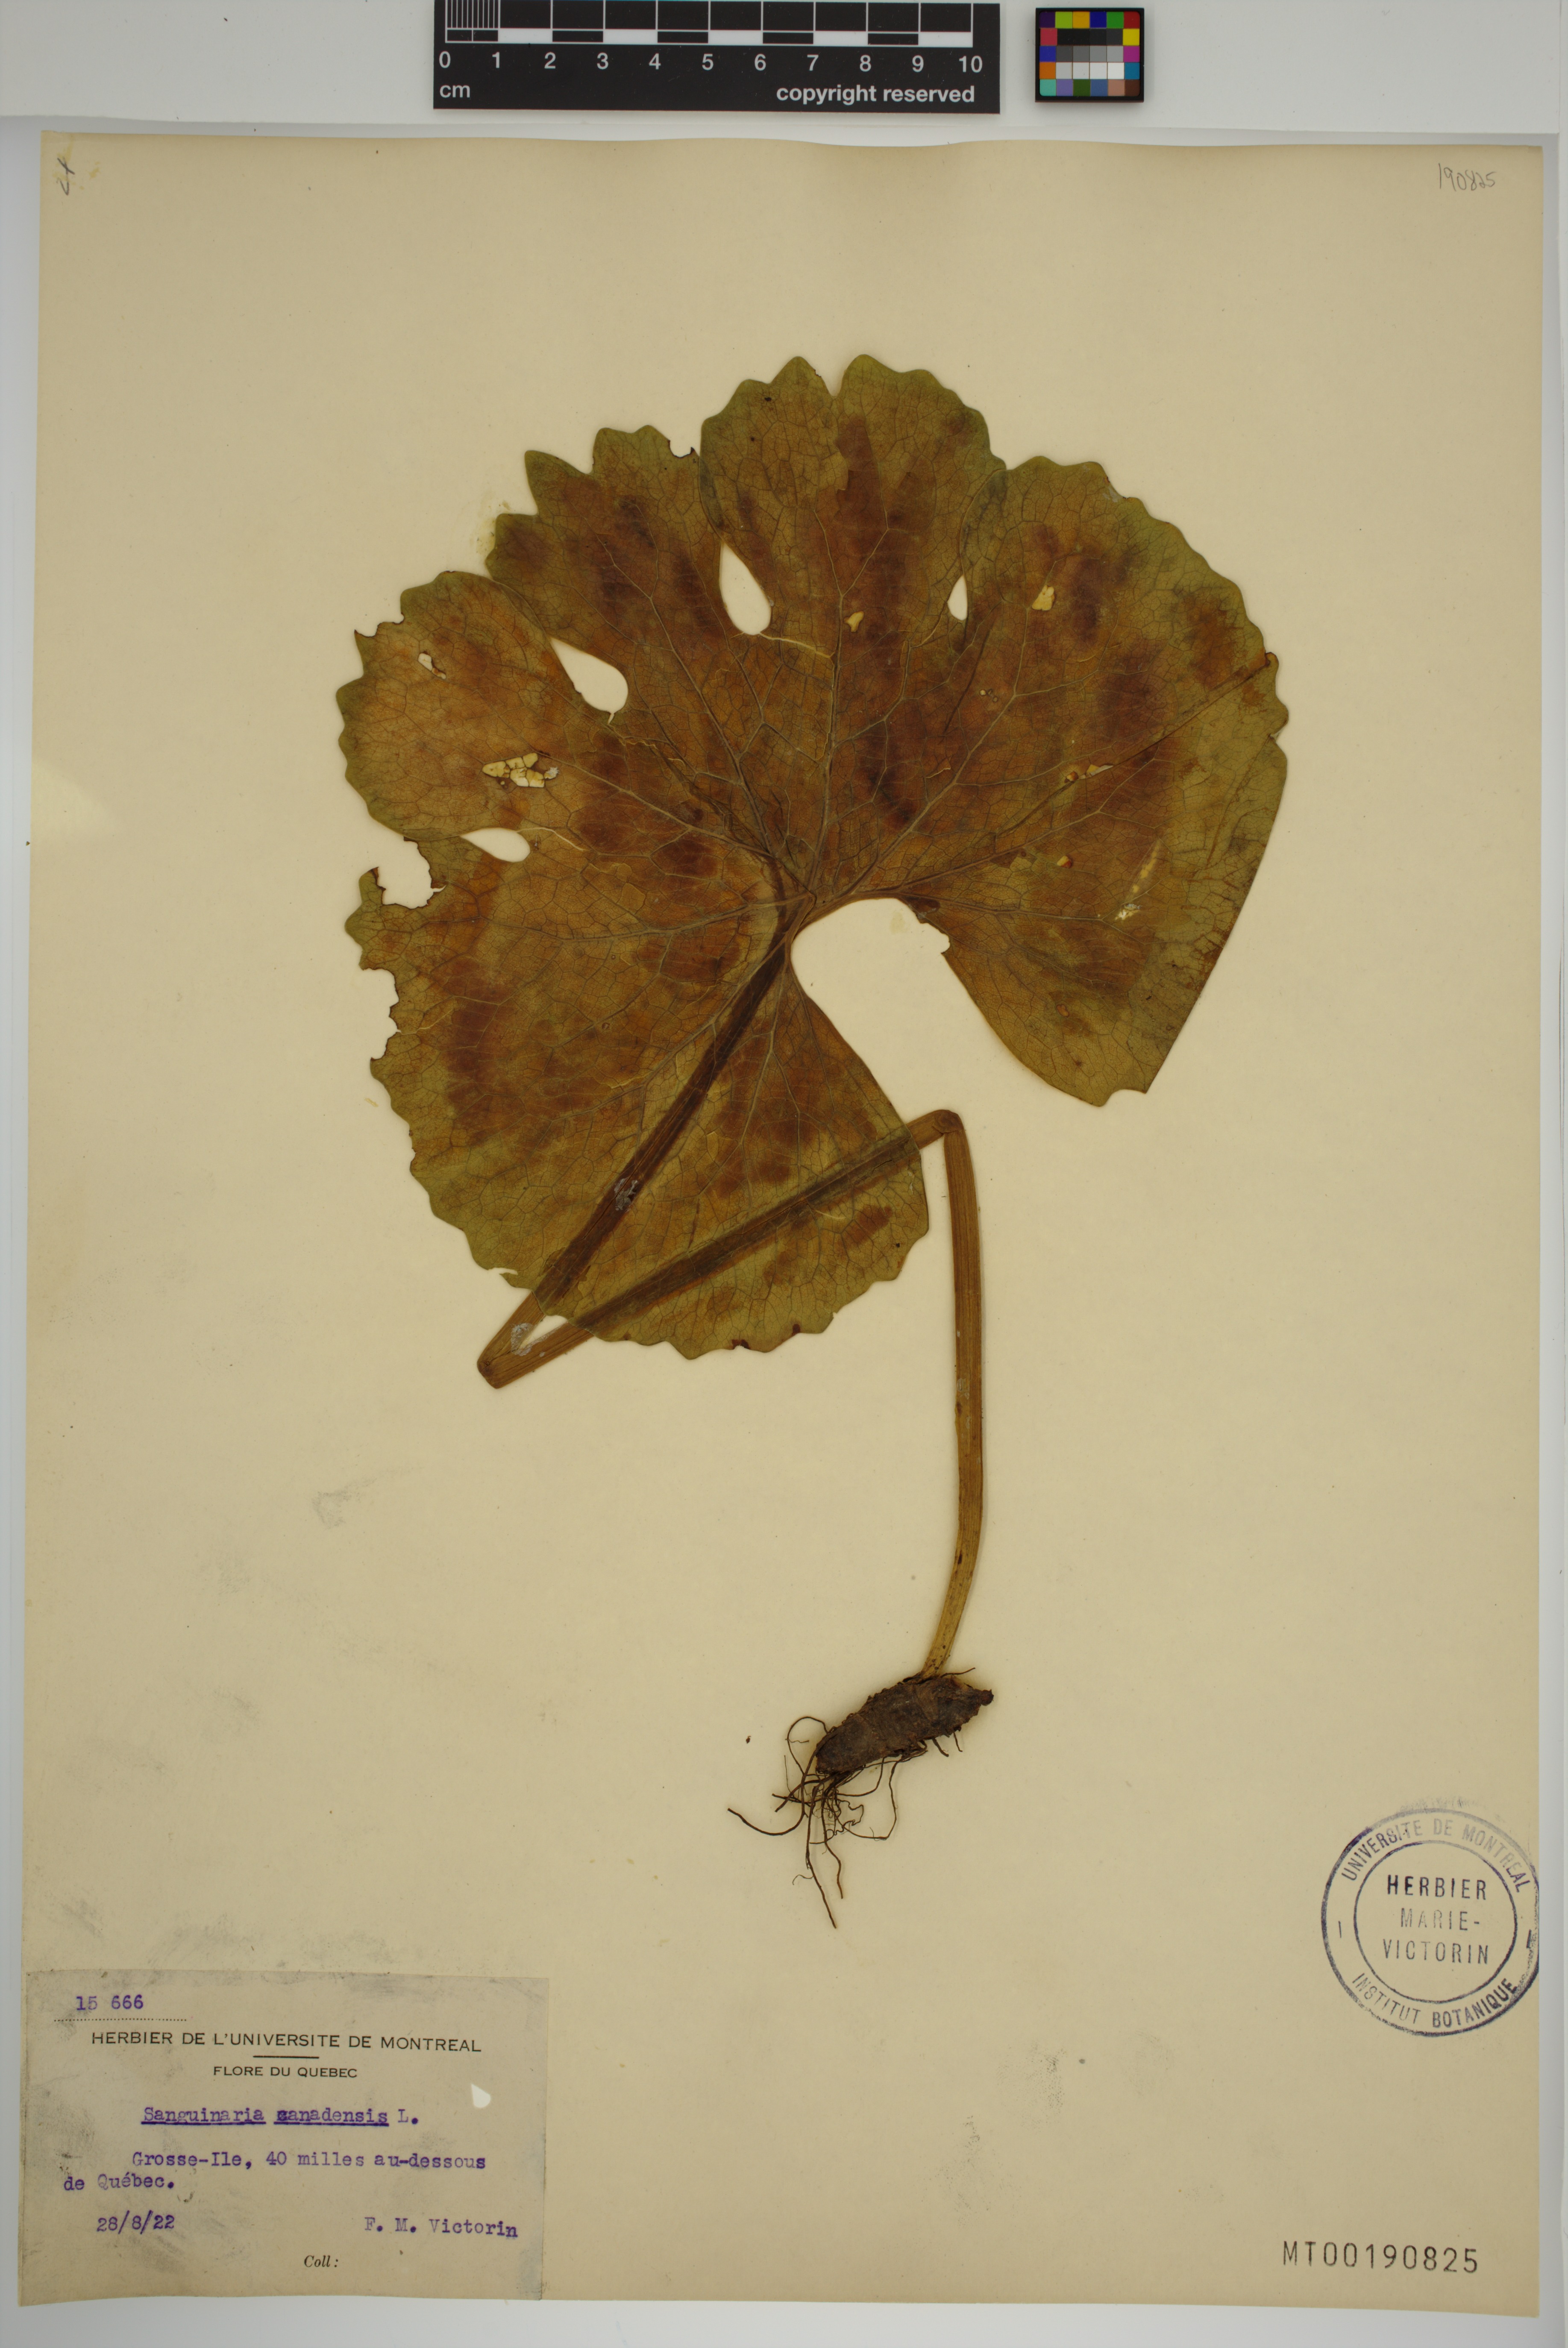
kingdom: Plantae
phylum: Tracheophyta
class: Magnoliopsida
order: Ranunculales
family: Papaveraceae
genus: Sanguinaria
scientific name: Sanguinaria canadensis
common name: Bloodroot
